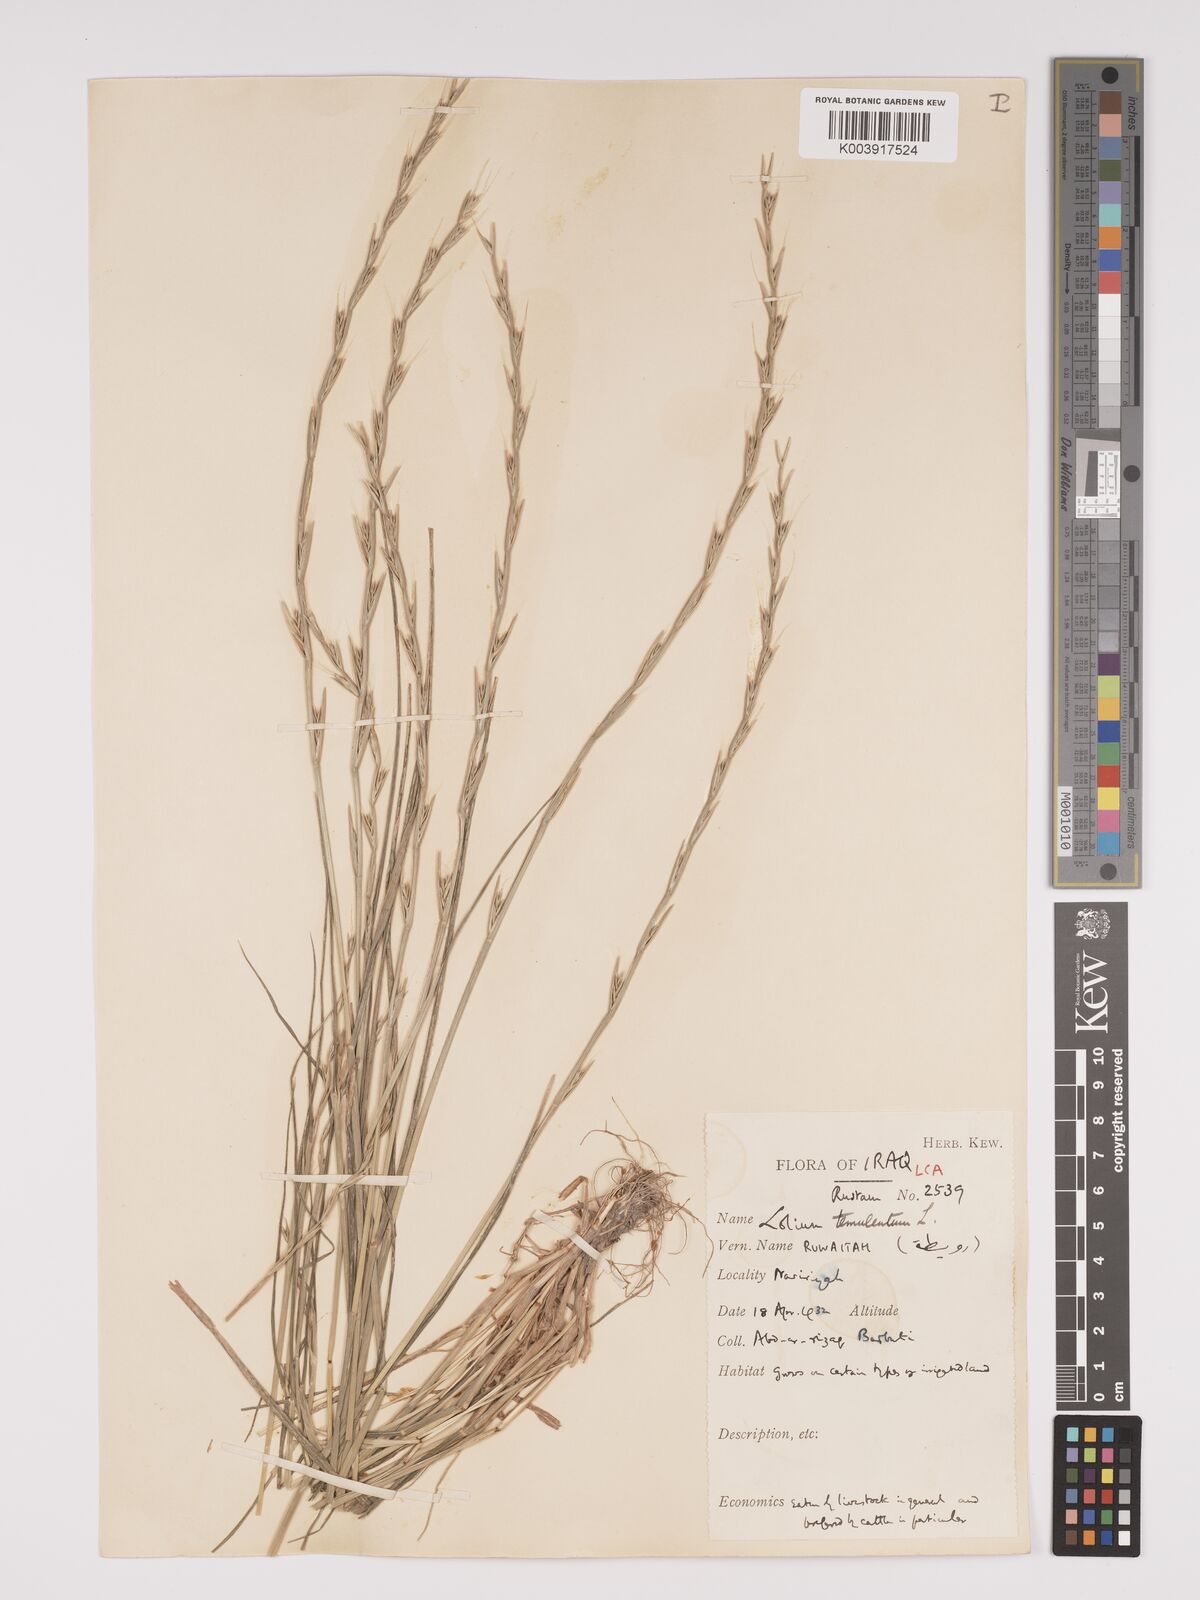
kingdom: Plantae
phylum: Tracheophyta
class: Liliopsida
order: Poales
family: Poaceae
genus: Lolium
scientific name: Lolium temulentum
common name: Darnel
